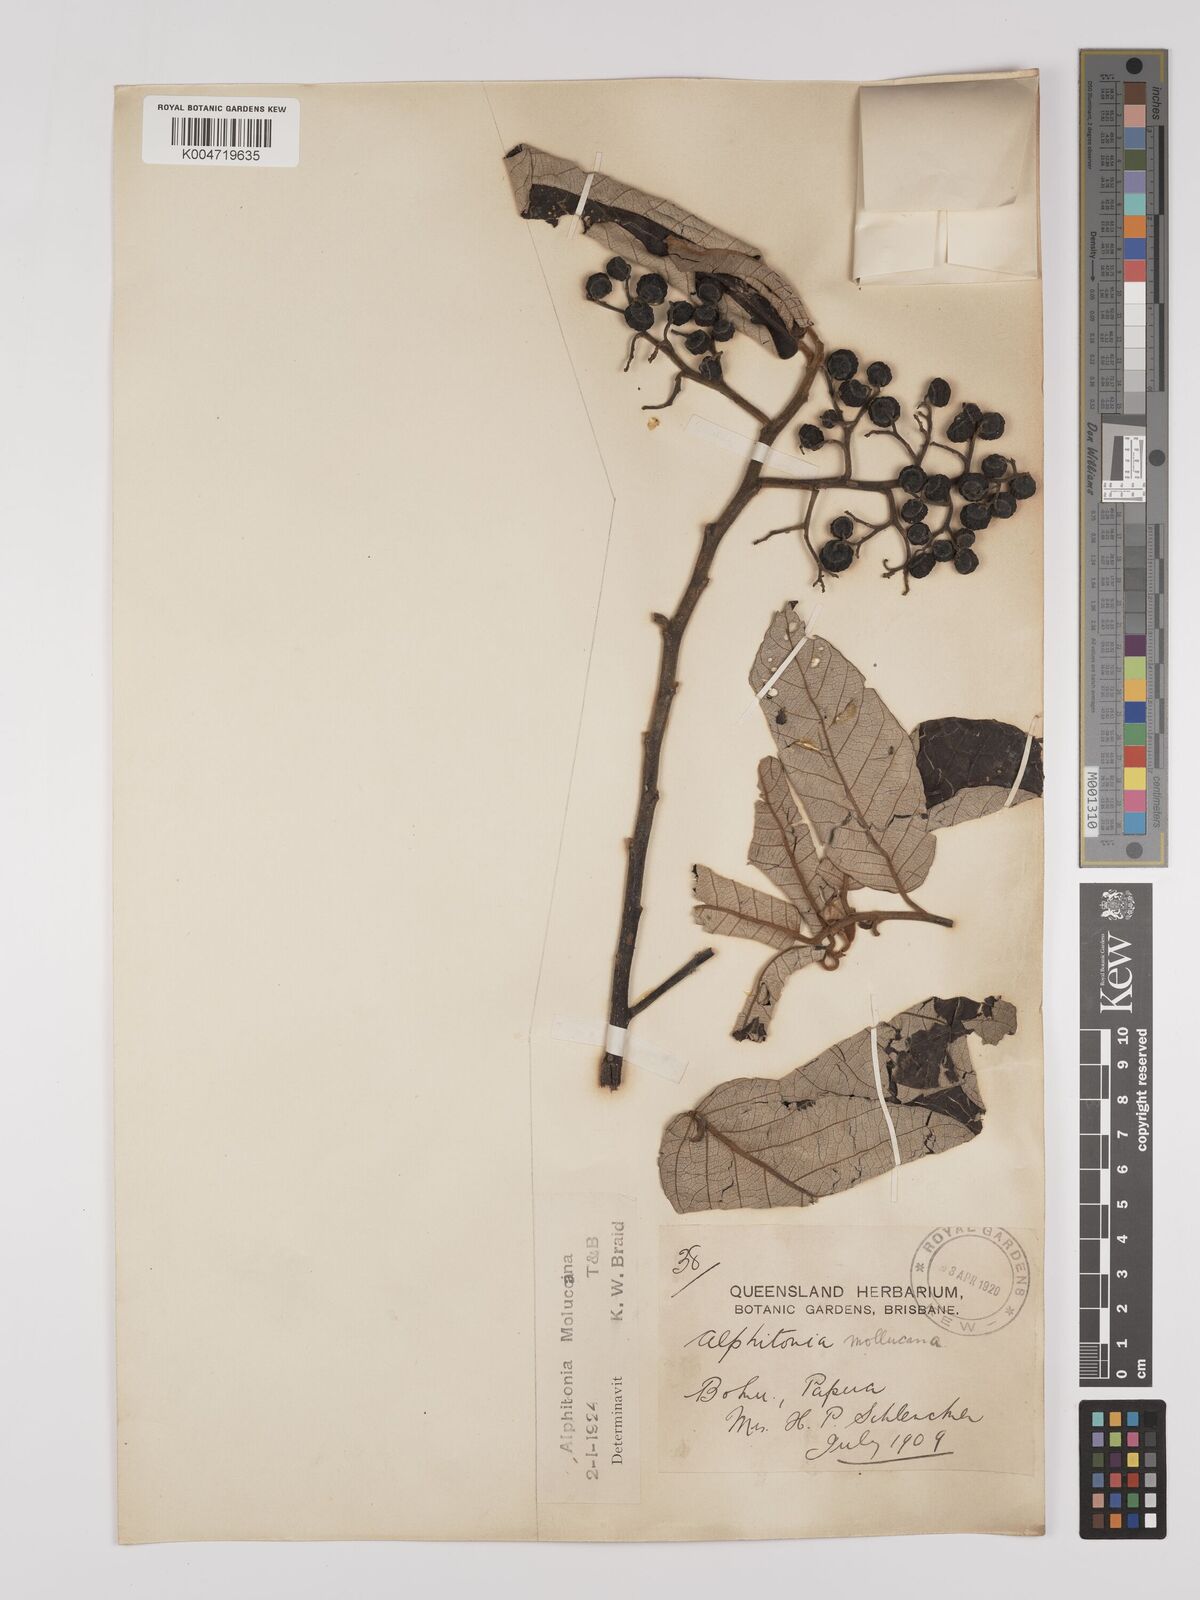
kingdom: Plantae
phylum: Tracheophyta
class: Magnoliopsida
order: Rosales
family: Rhamnaceae
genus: Alphitonia
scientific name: Alphitonia incana
